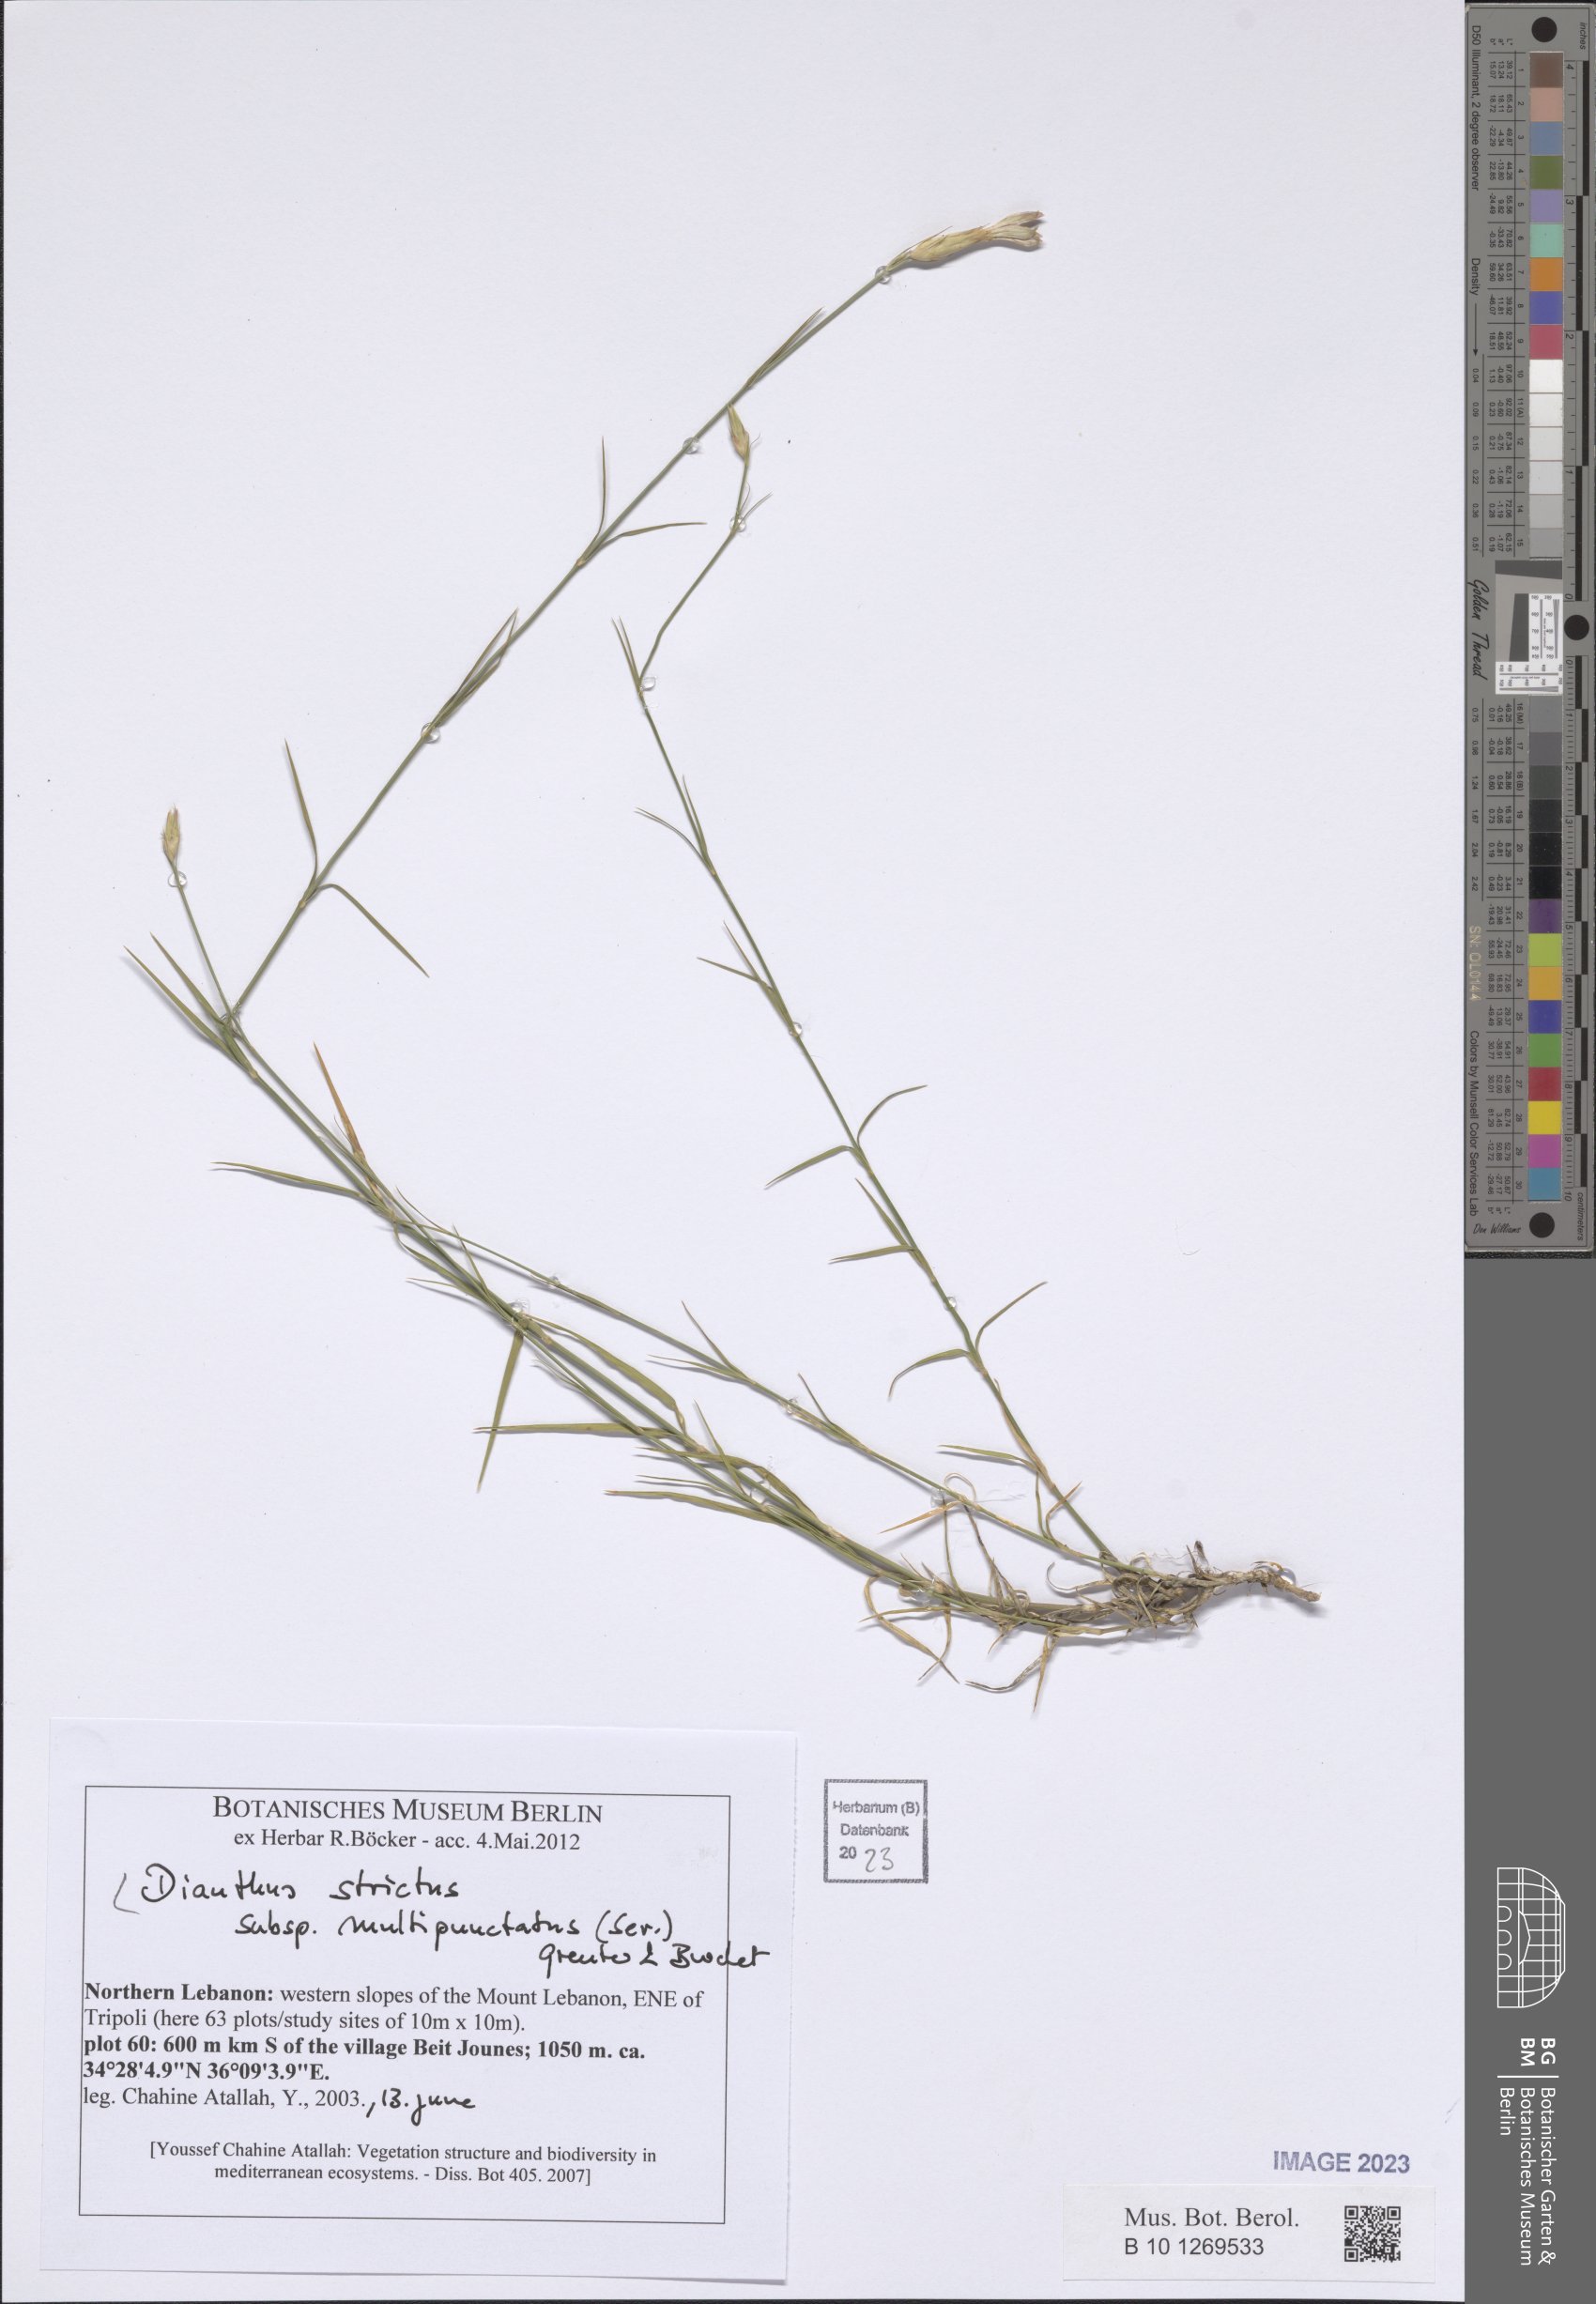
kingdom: Plantae
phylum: Tracheophyta
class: Magnoliopsida
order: Caryophyllales
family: Caryophyllaceae
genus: Dianthus
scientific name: Dianthus strictus
